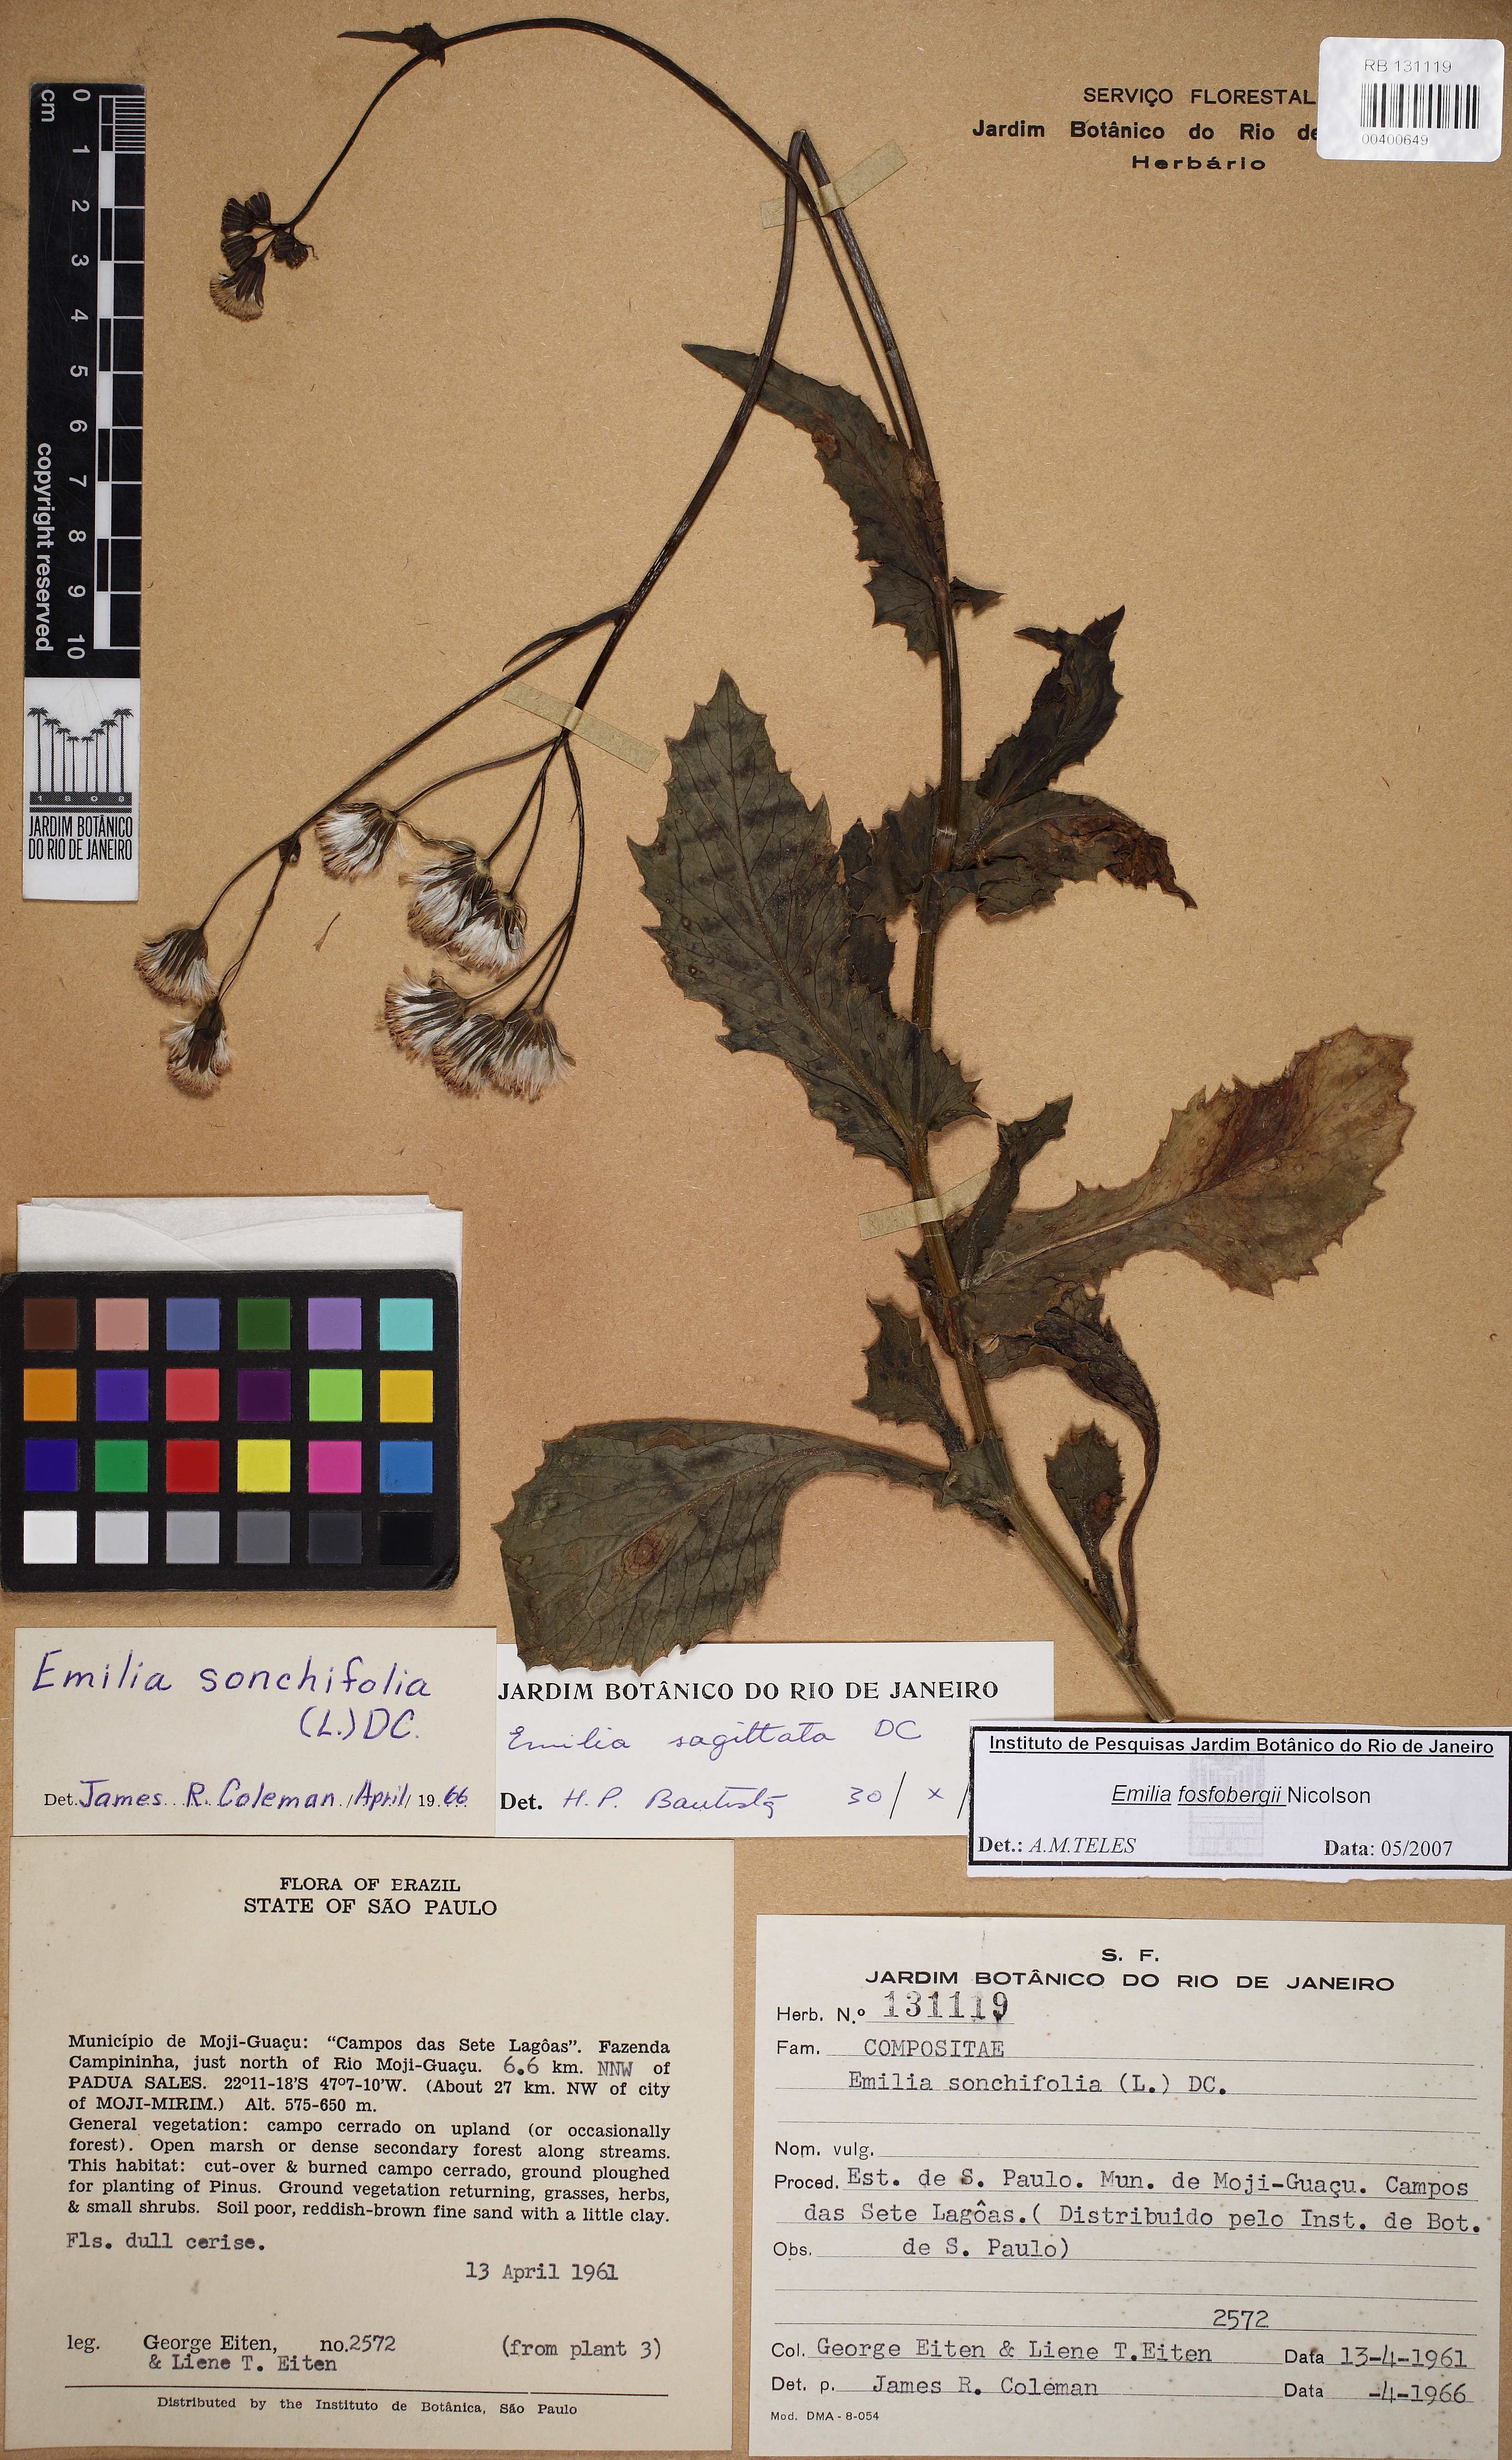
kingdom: Plantae
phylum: Tracheophyta
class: Magnoliopsida
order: Asterales
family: Asteraceae
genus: Emilia
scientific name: Emilia fosbergii
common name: Florida tasselflower
